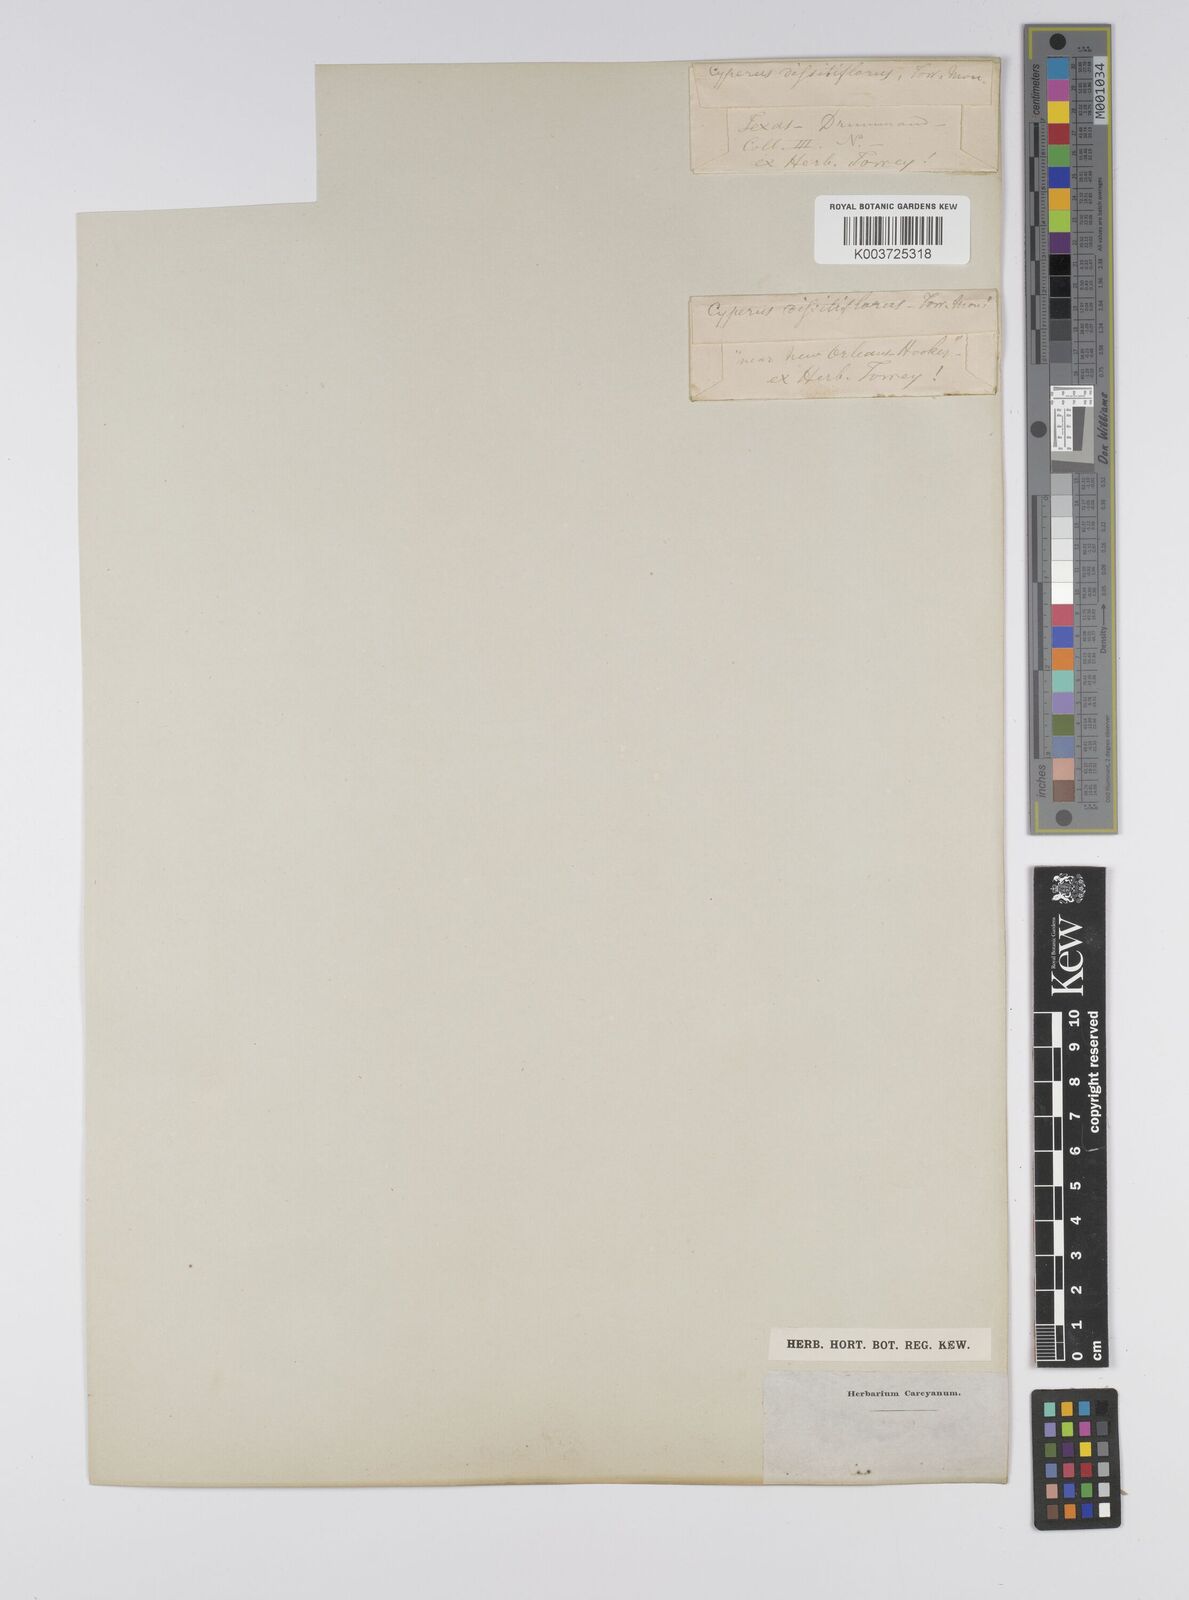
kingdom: Plantae
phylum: Tracheophyta
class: Liliopsida
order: Poales
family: Cyperaceae
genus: Cyperus
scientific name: Cyperus
